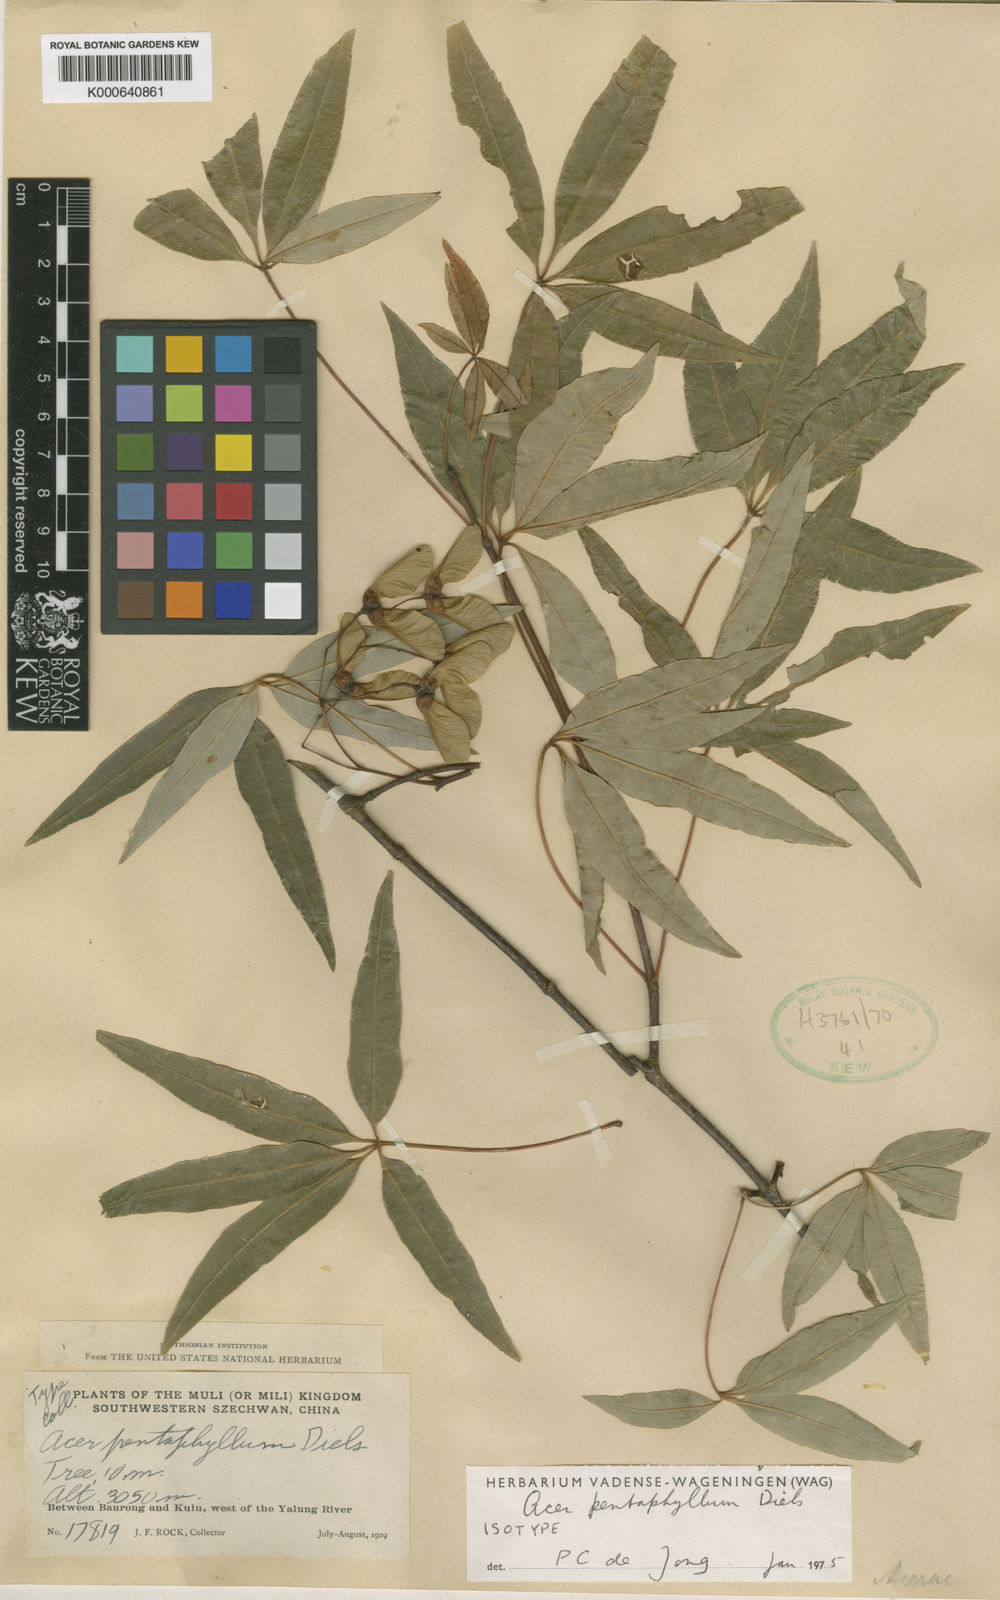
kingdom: Plantae
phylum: Tracheophyta
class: Magnoliopsida
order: Sapindales
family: Sapindaceae
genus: Acer
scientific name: Acer pentaphyllum
